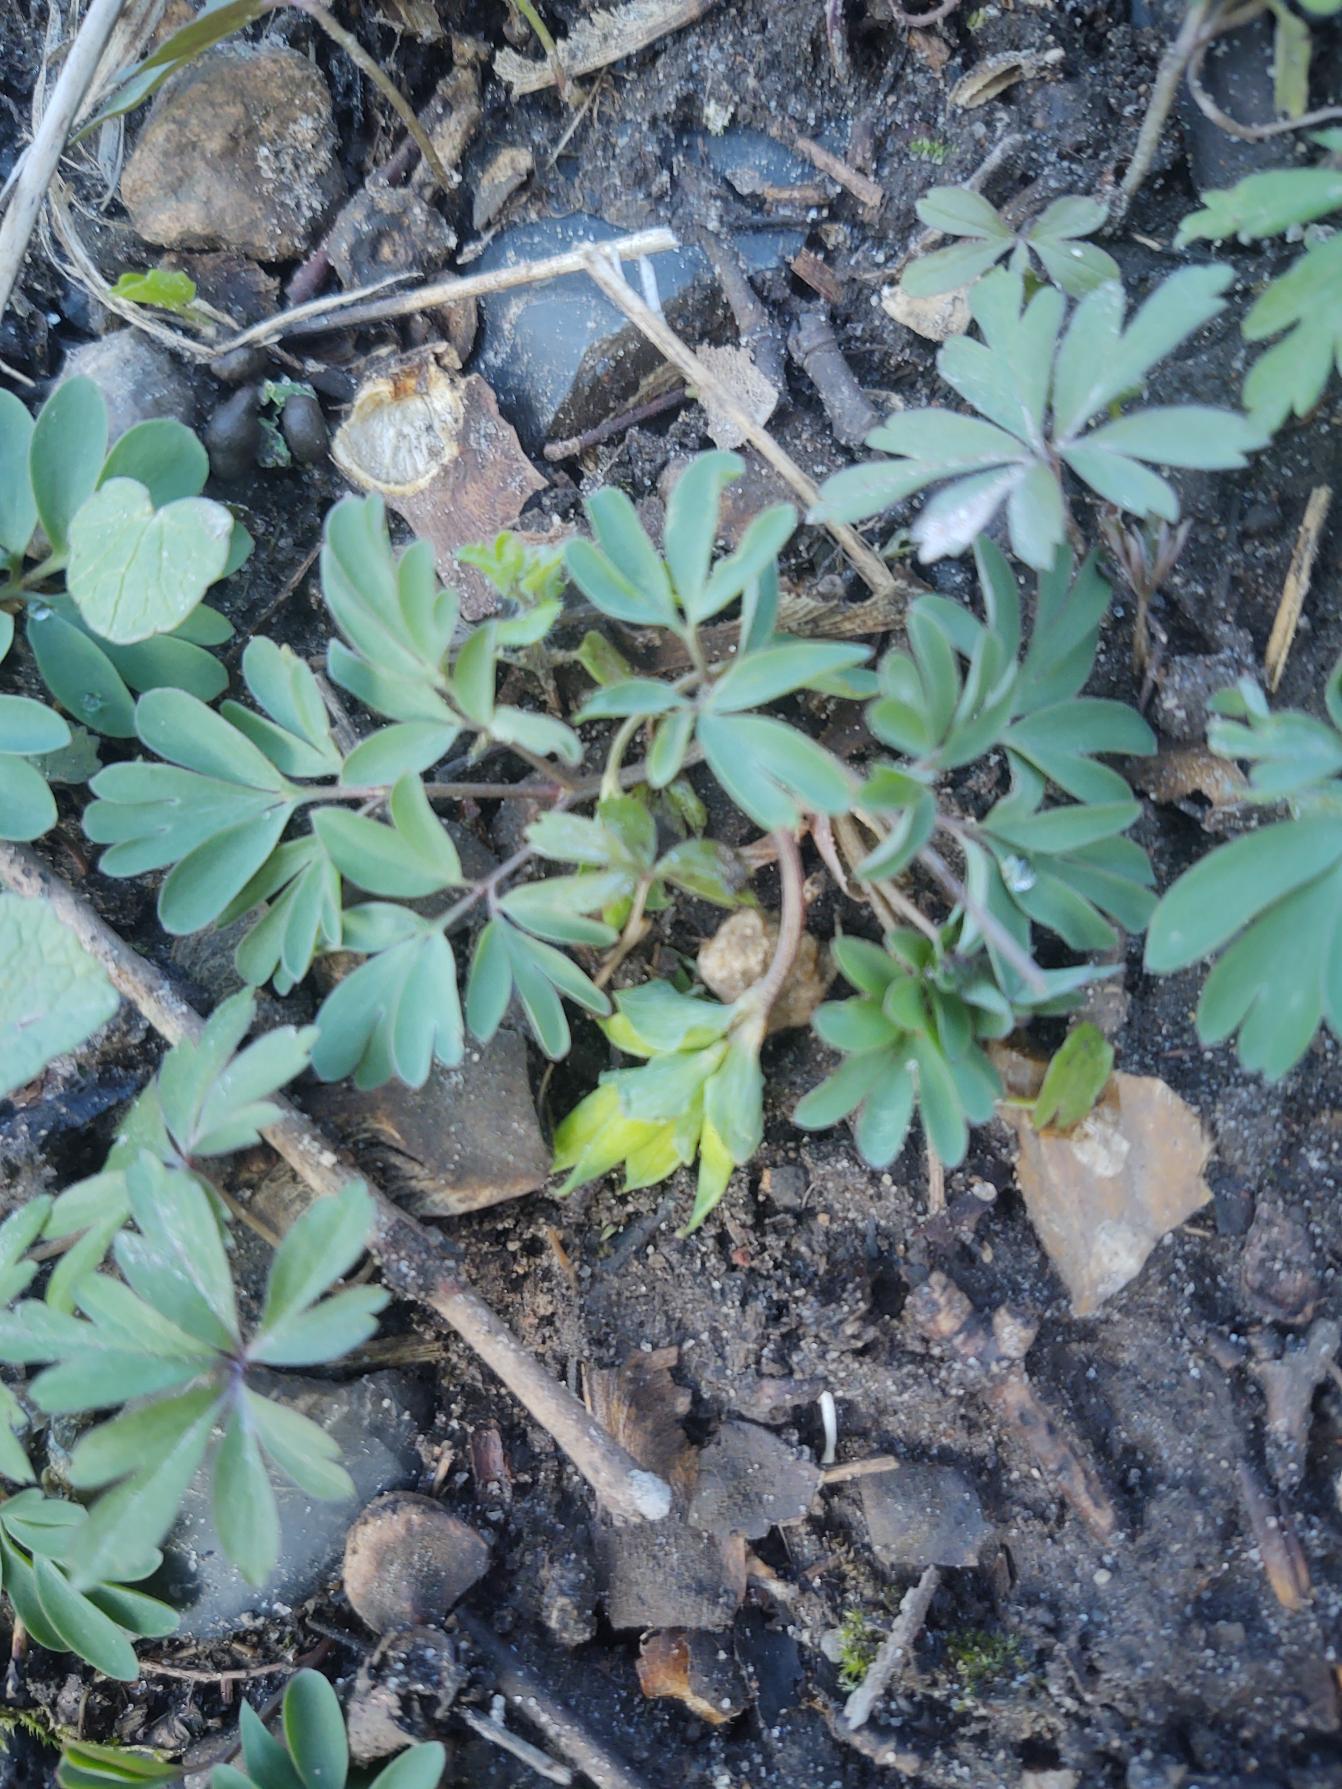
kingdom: Plantae
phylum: Tracheophyta
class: Magnoliopsida
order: Ranunculales
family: Papaveraceae
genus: Corydalis
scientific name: Corydalis intermedia
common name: Liden lærkespore
